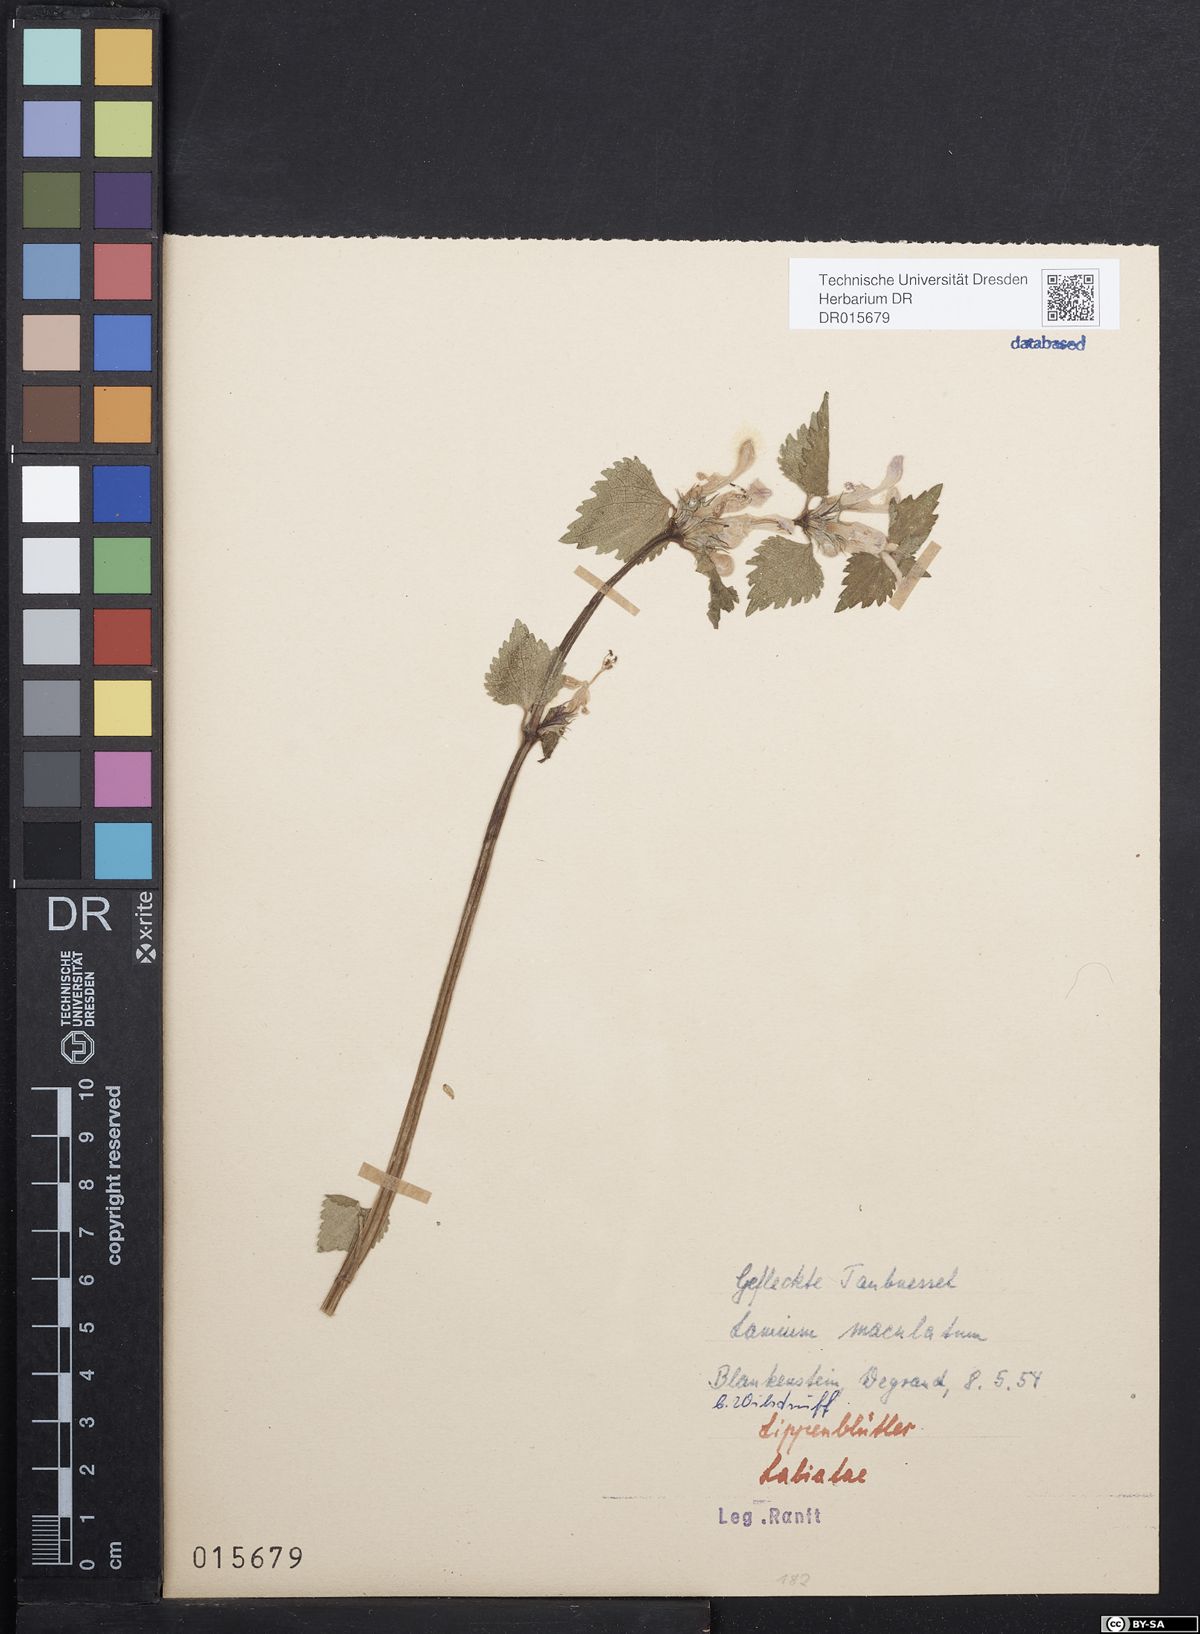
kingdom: Plantae
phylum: Tracheophyta
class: Magnoliopsida
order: Lamiales
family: Lamiaceae
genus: Lamium
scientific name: Lamium maculatum
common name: Spotted dead-nettle
